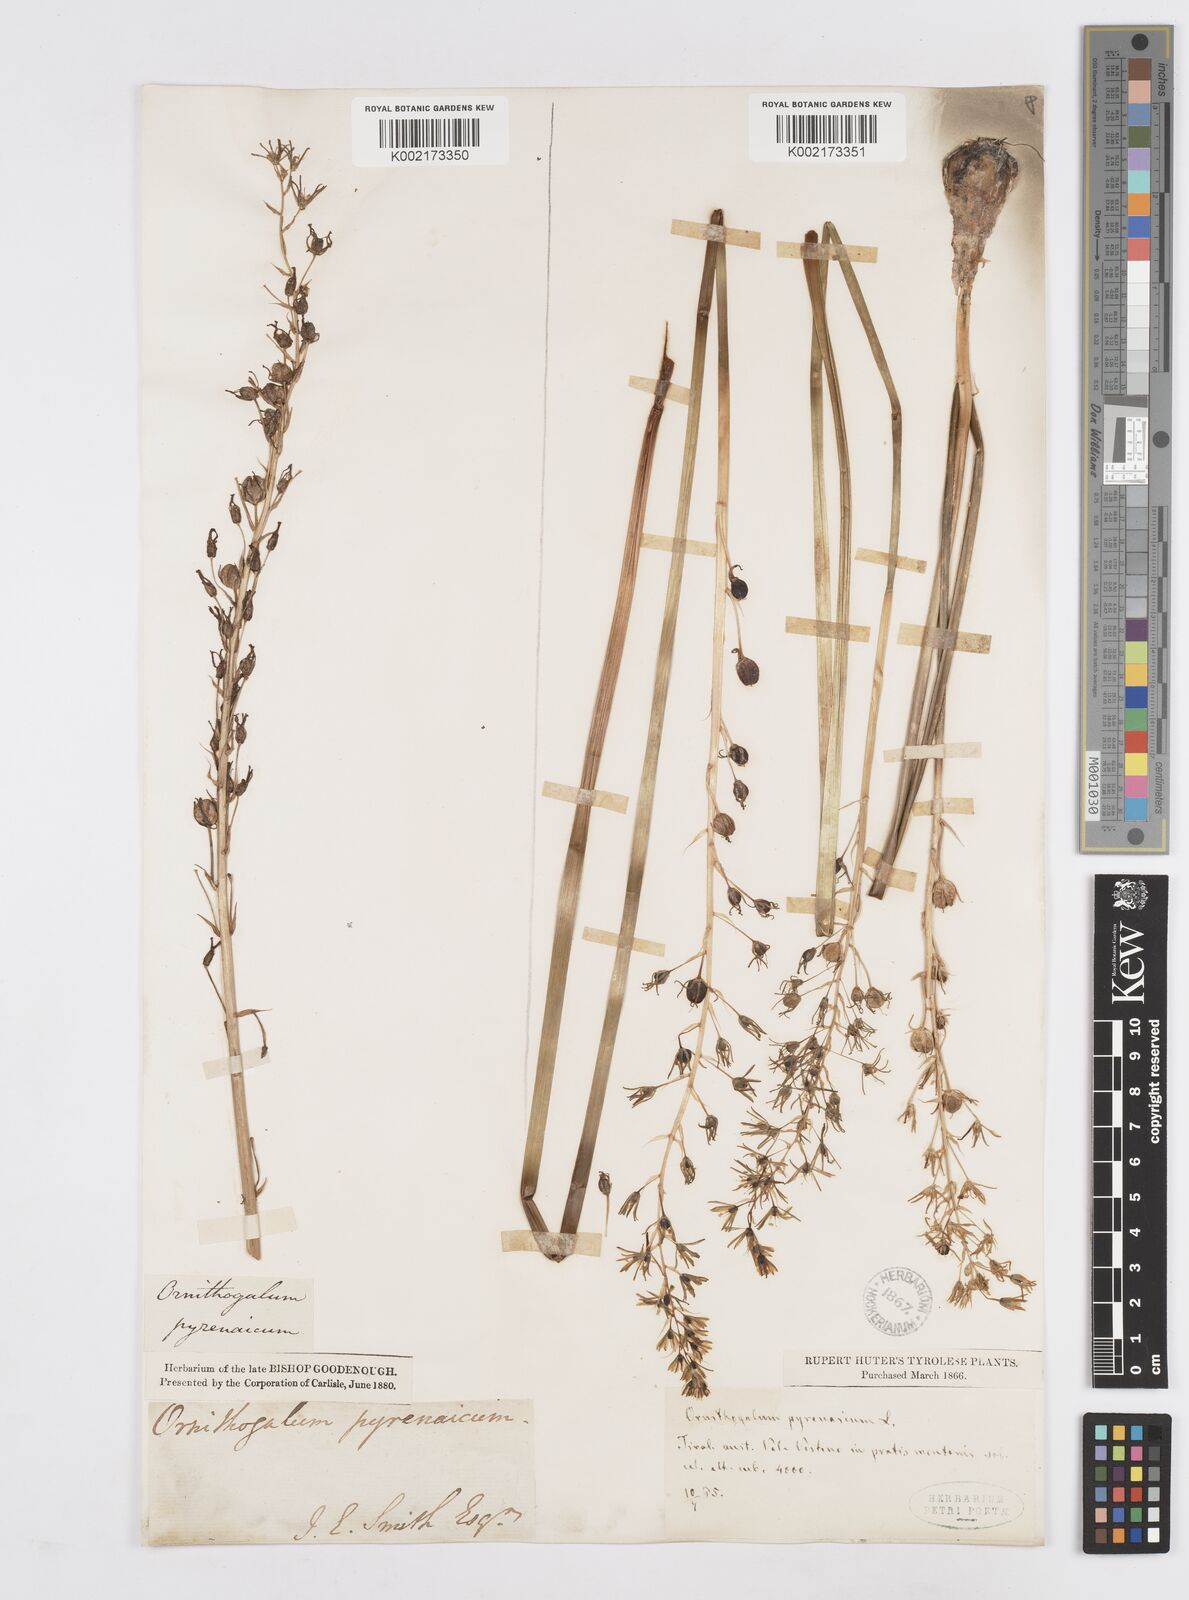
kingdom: Plantae
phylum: Tracheophyta
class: Liliopsida
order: Asparagales
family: Asparagaceae
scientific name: Asparagaceae
